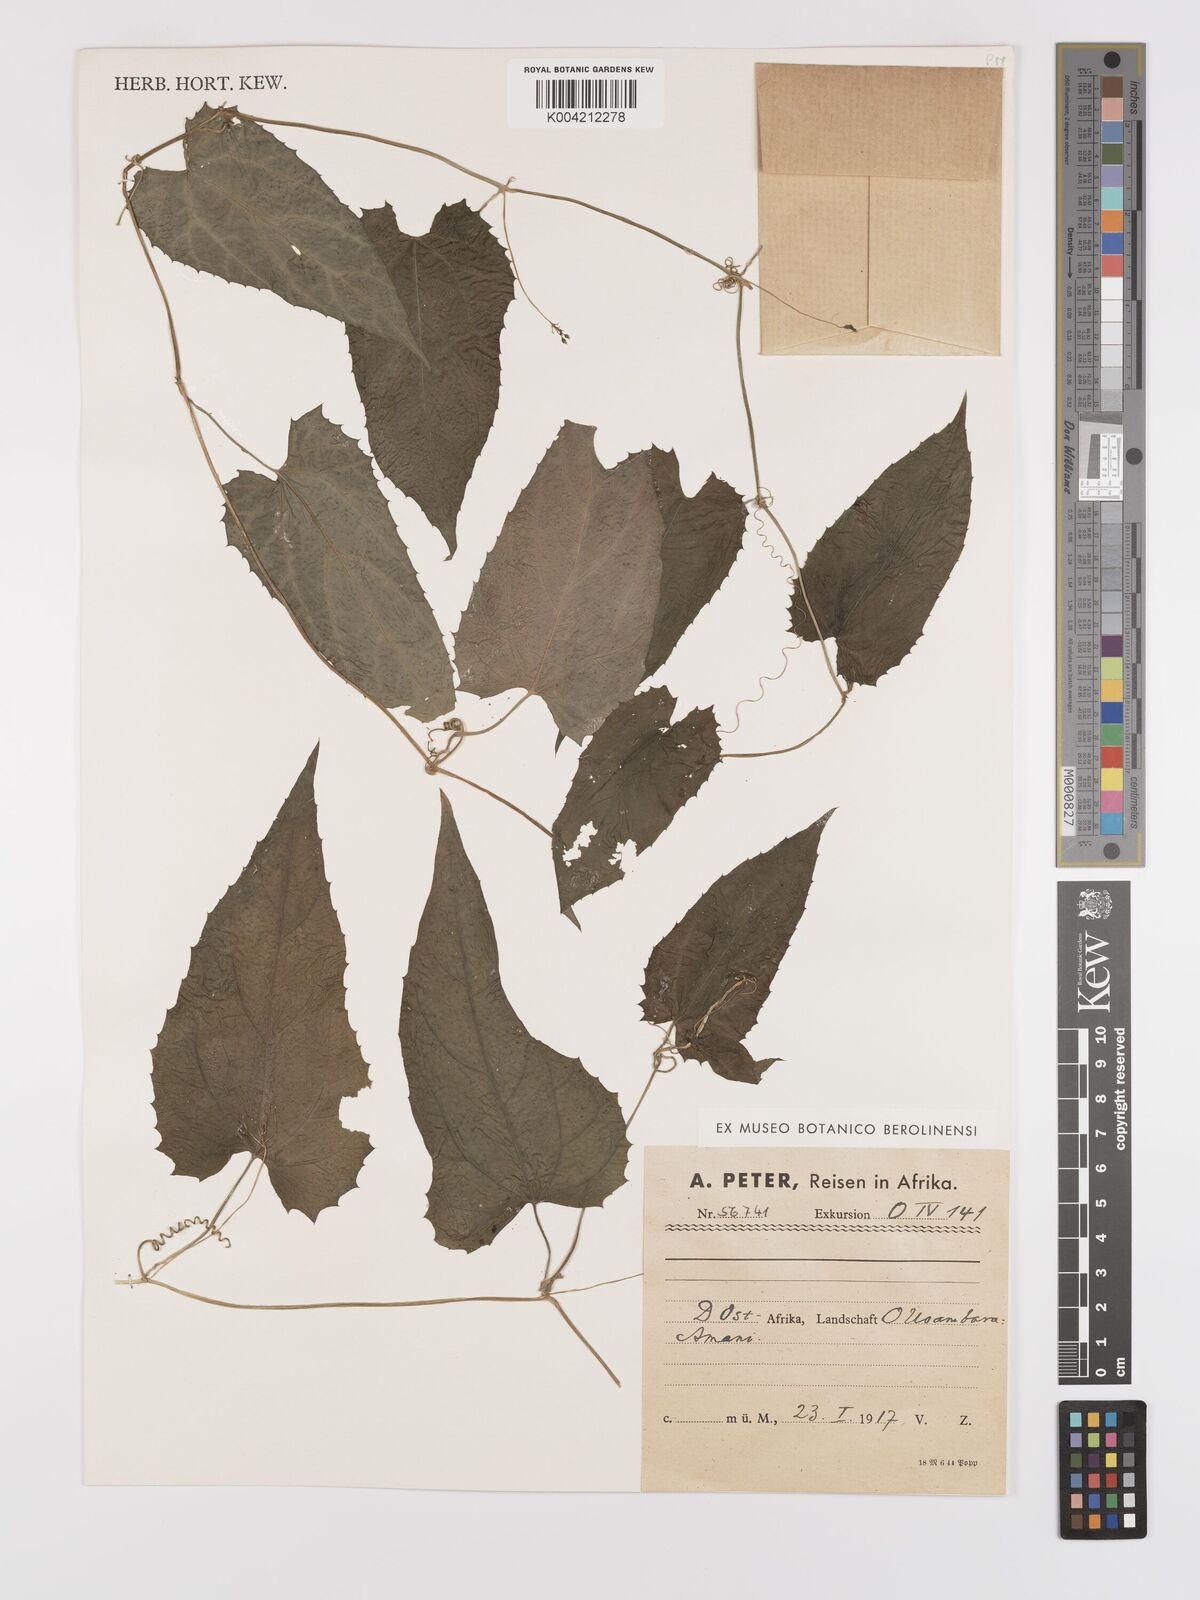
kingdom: Plantae
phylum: Tracheophyta
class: Magnoliopsida
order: Cucurbitales
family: Cucurbitaceae
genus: Kedrostis
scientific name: Kedrostis heterophylla
